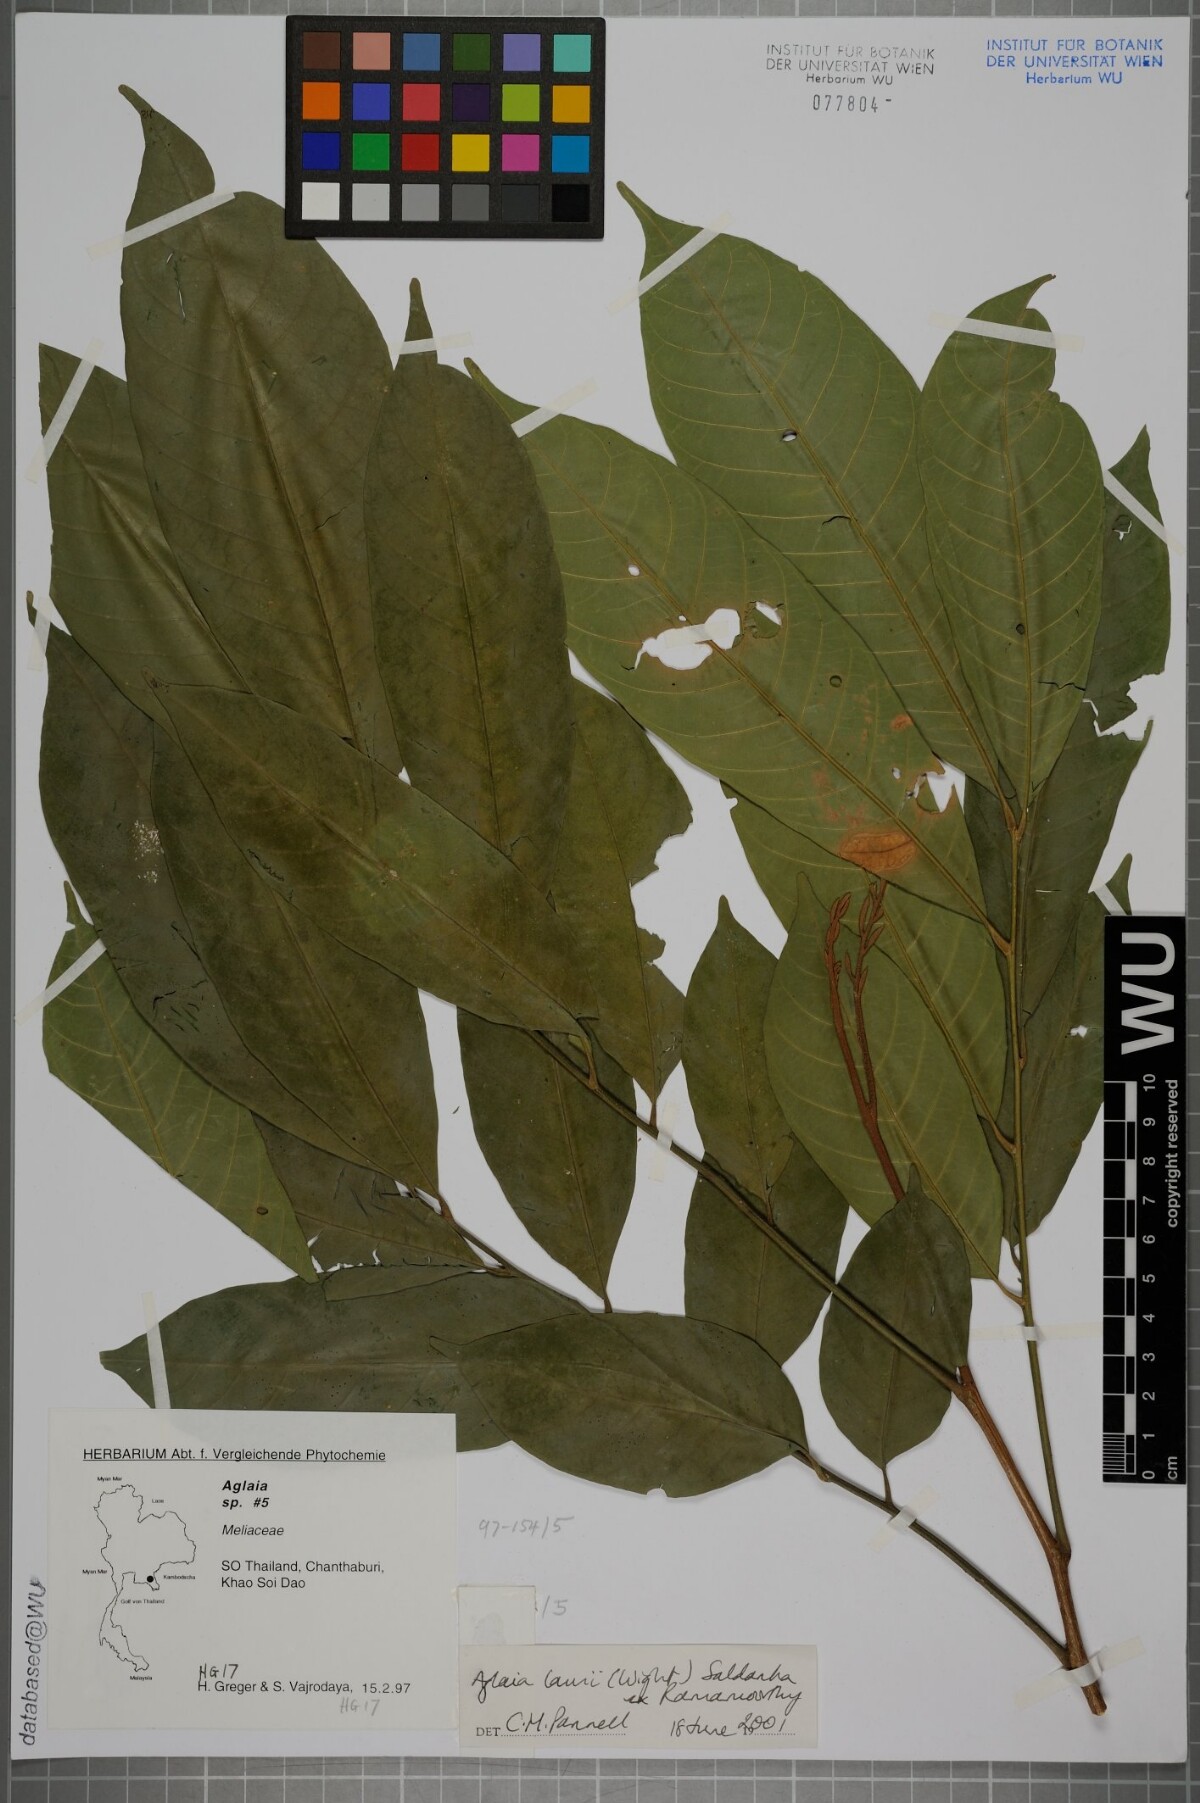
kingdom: Plantae
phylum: Tracheophyta
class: Magnoliopsida
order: Sapindales
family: Meliaceae
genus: Aglaia
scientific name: Aglaia lawii
